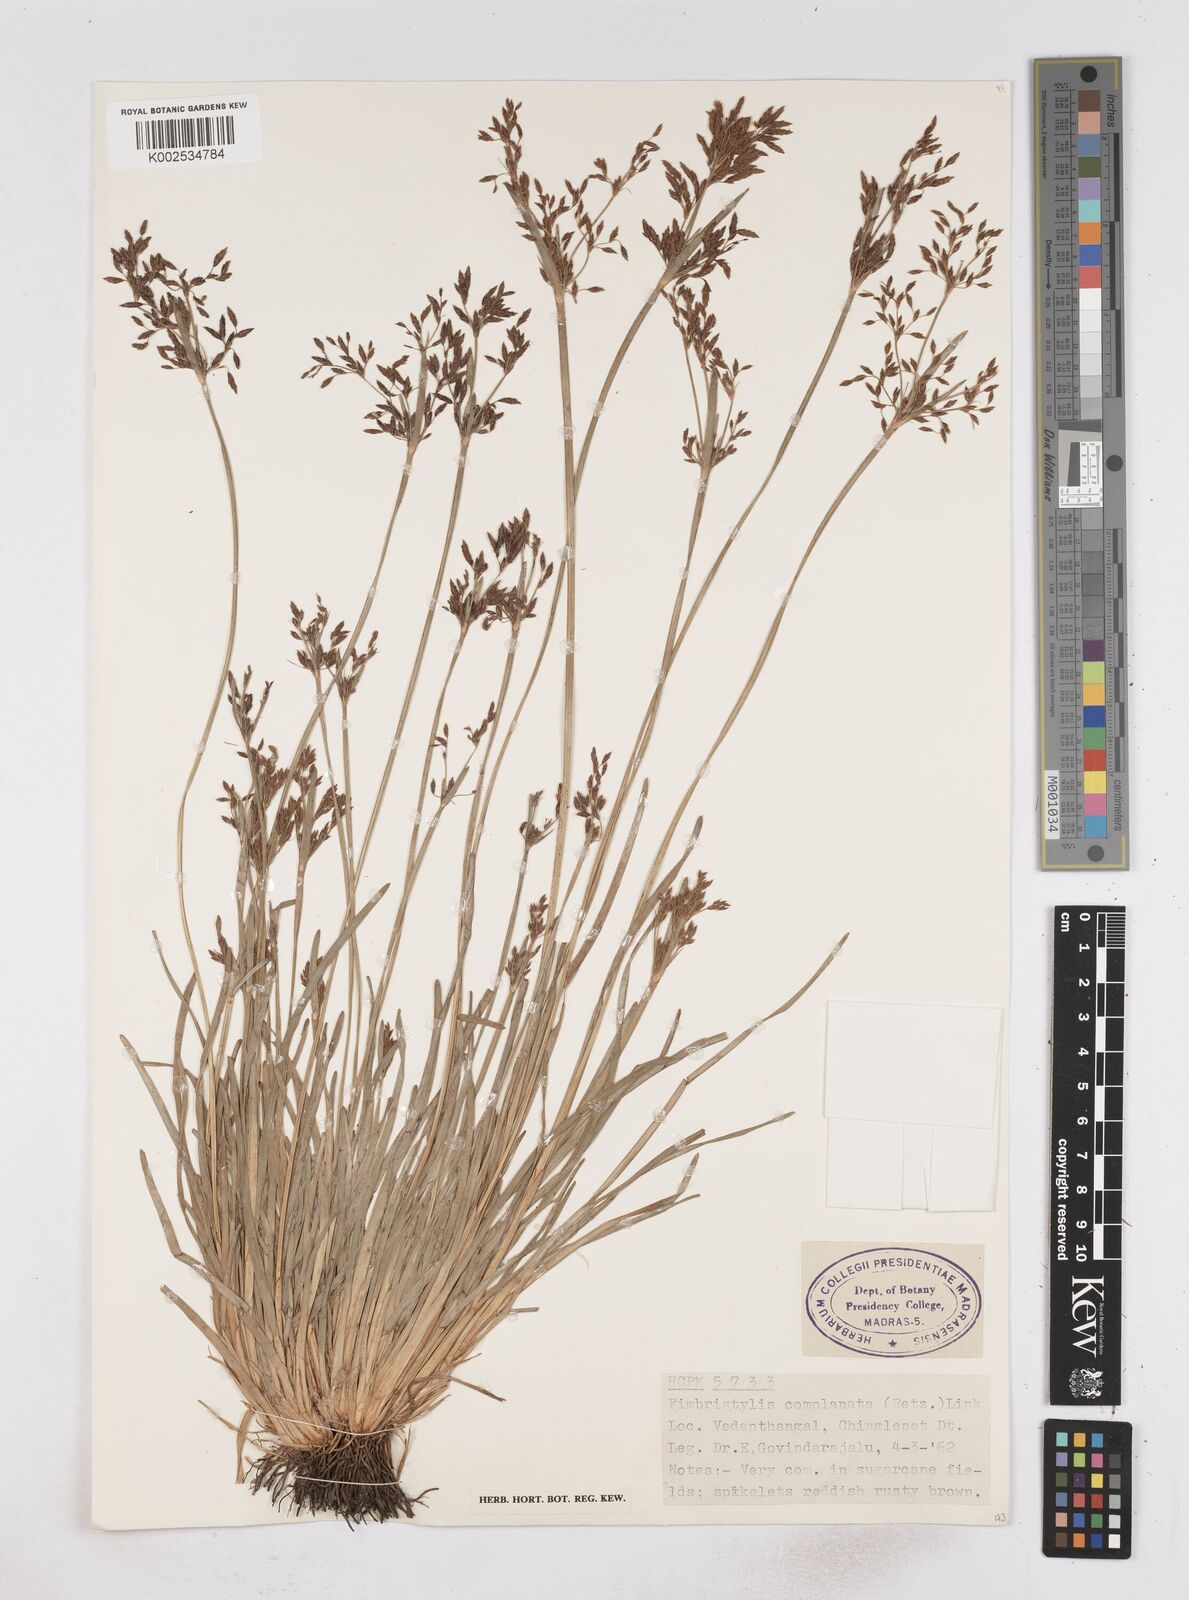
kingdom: Plantae
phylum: Tracheophyta
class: Liliopsida
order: Poales
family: Cyperaceae
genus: Fimbristylis
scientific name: Fimbristylis complanata
